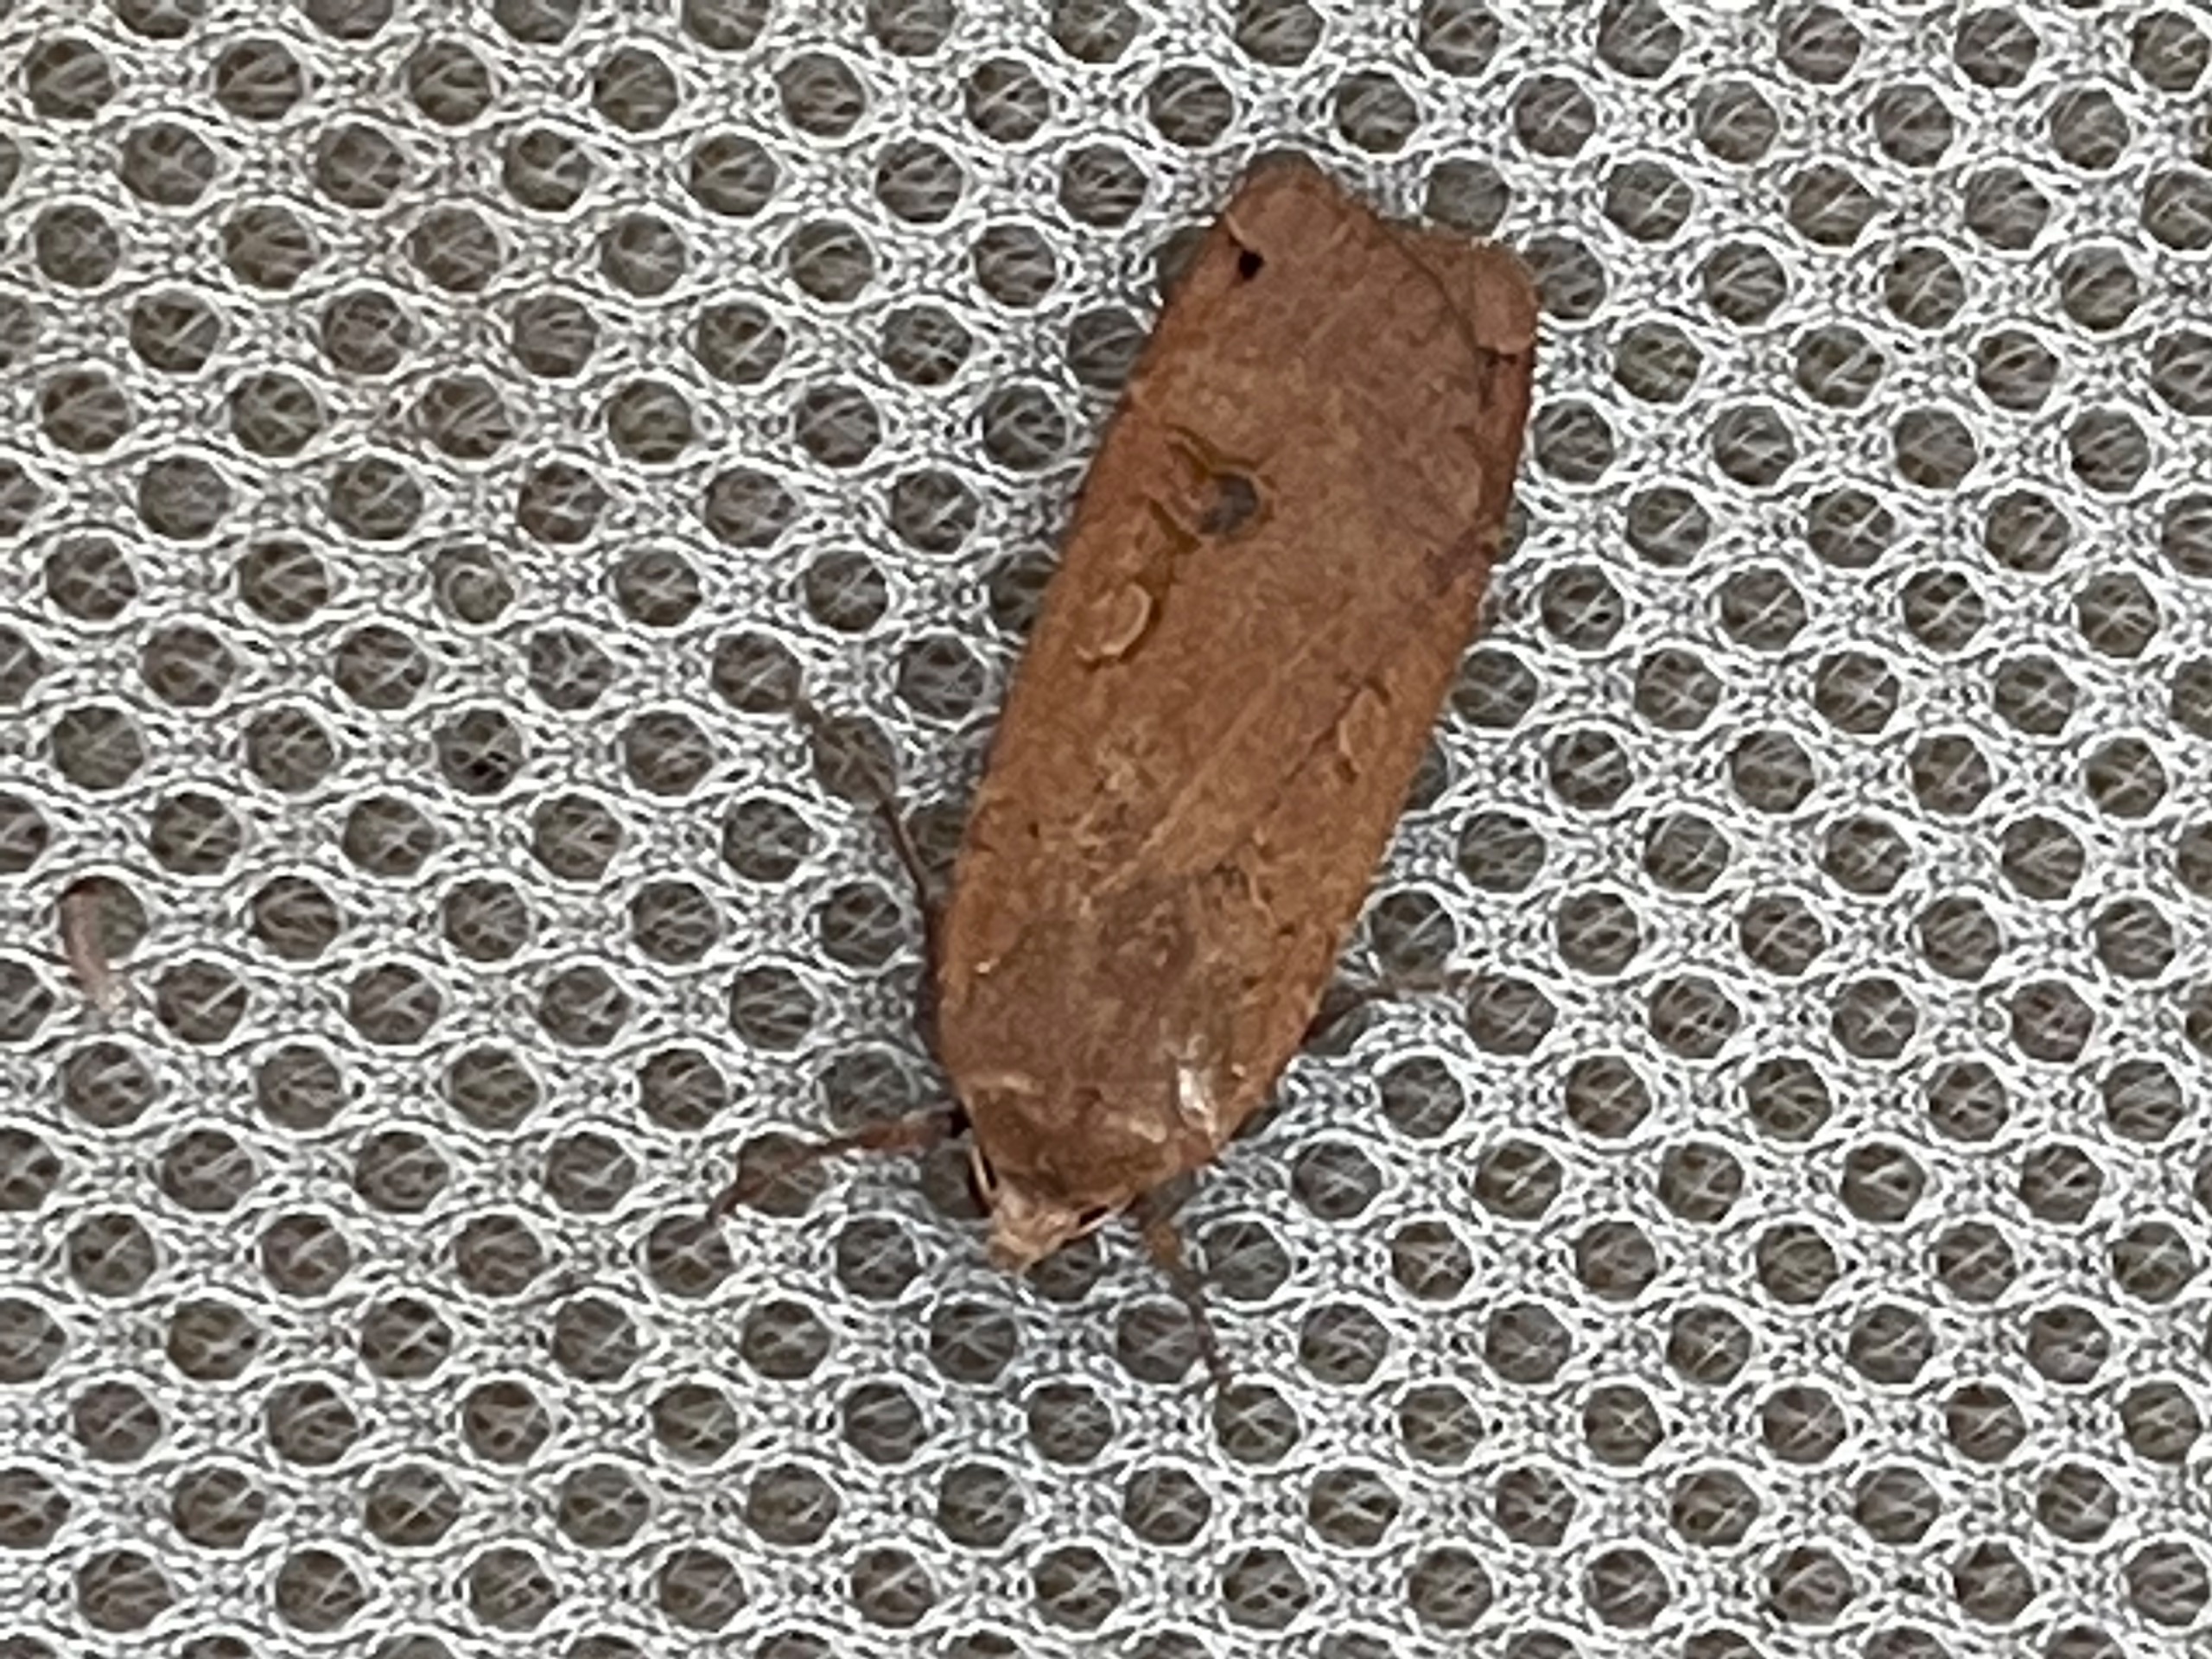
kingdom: Animalia
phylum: Arthropoda
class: Insecta
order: Lepidoptera
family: Noctuidae
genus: Noctua
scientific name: Noctua pronuba
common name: Stor smutugle
